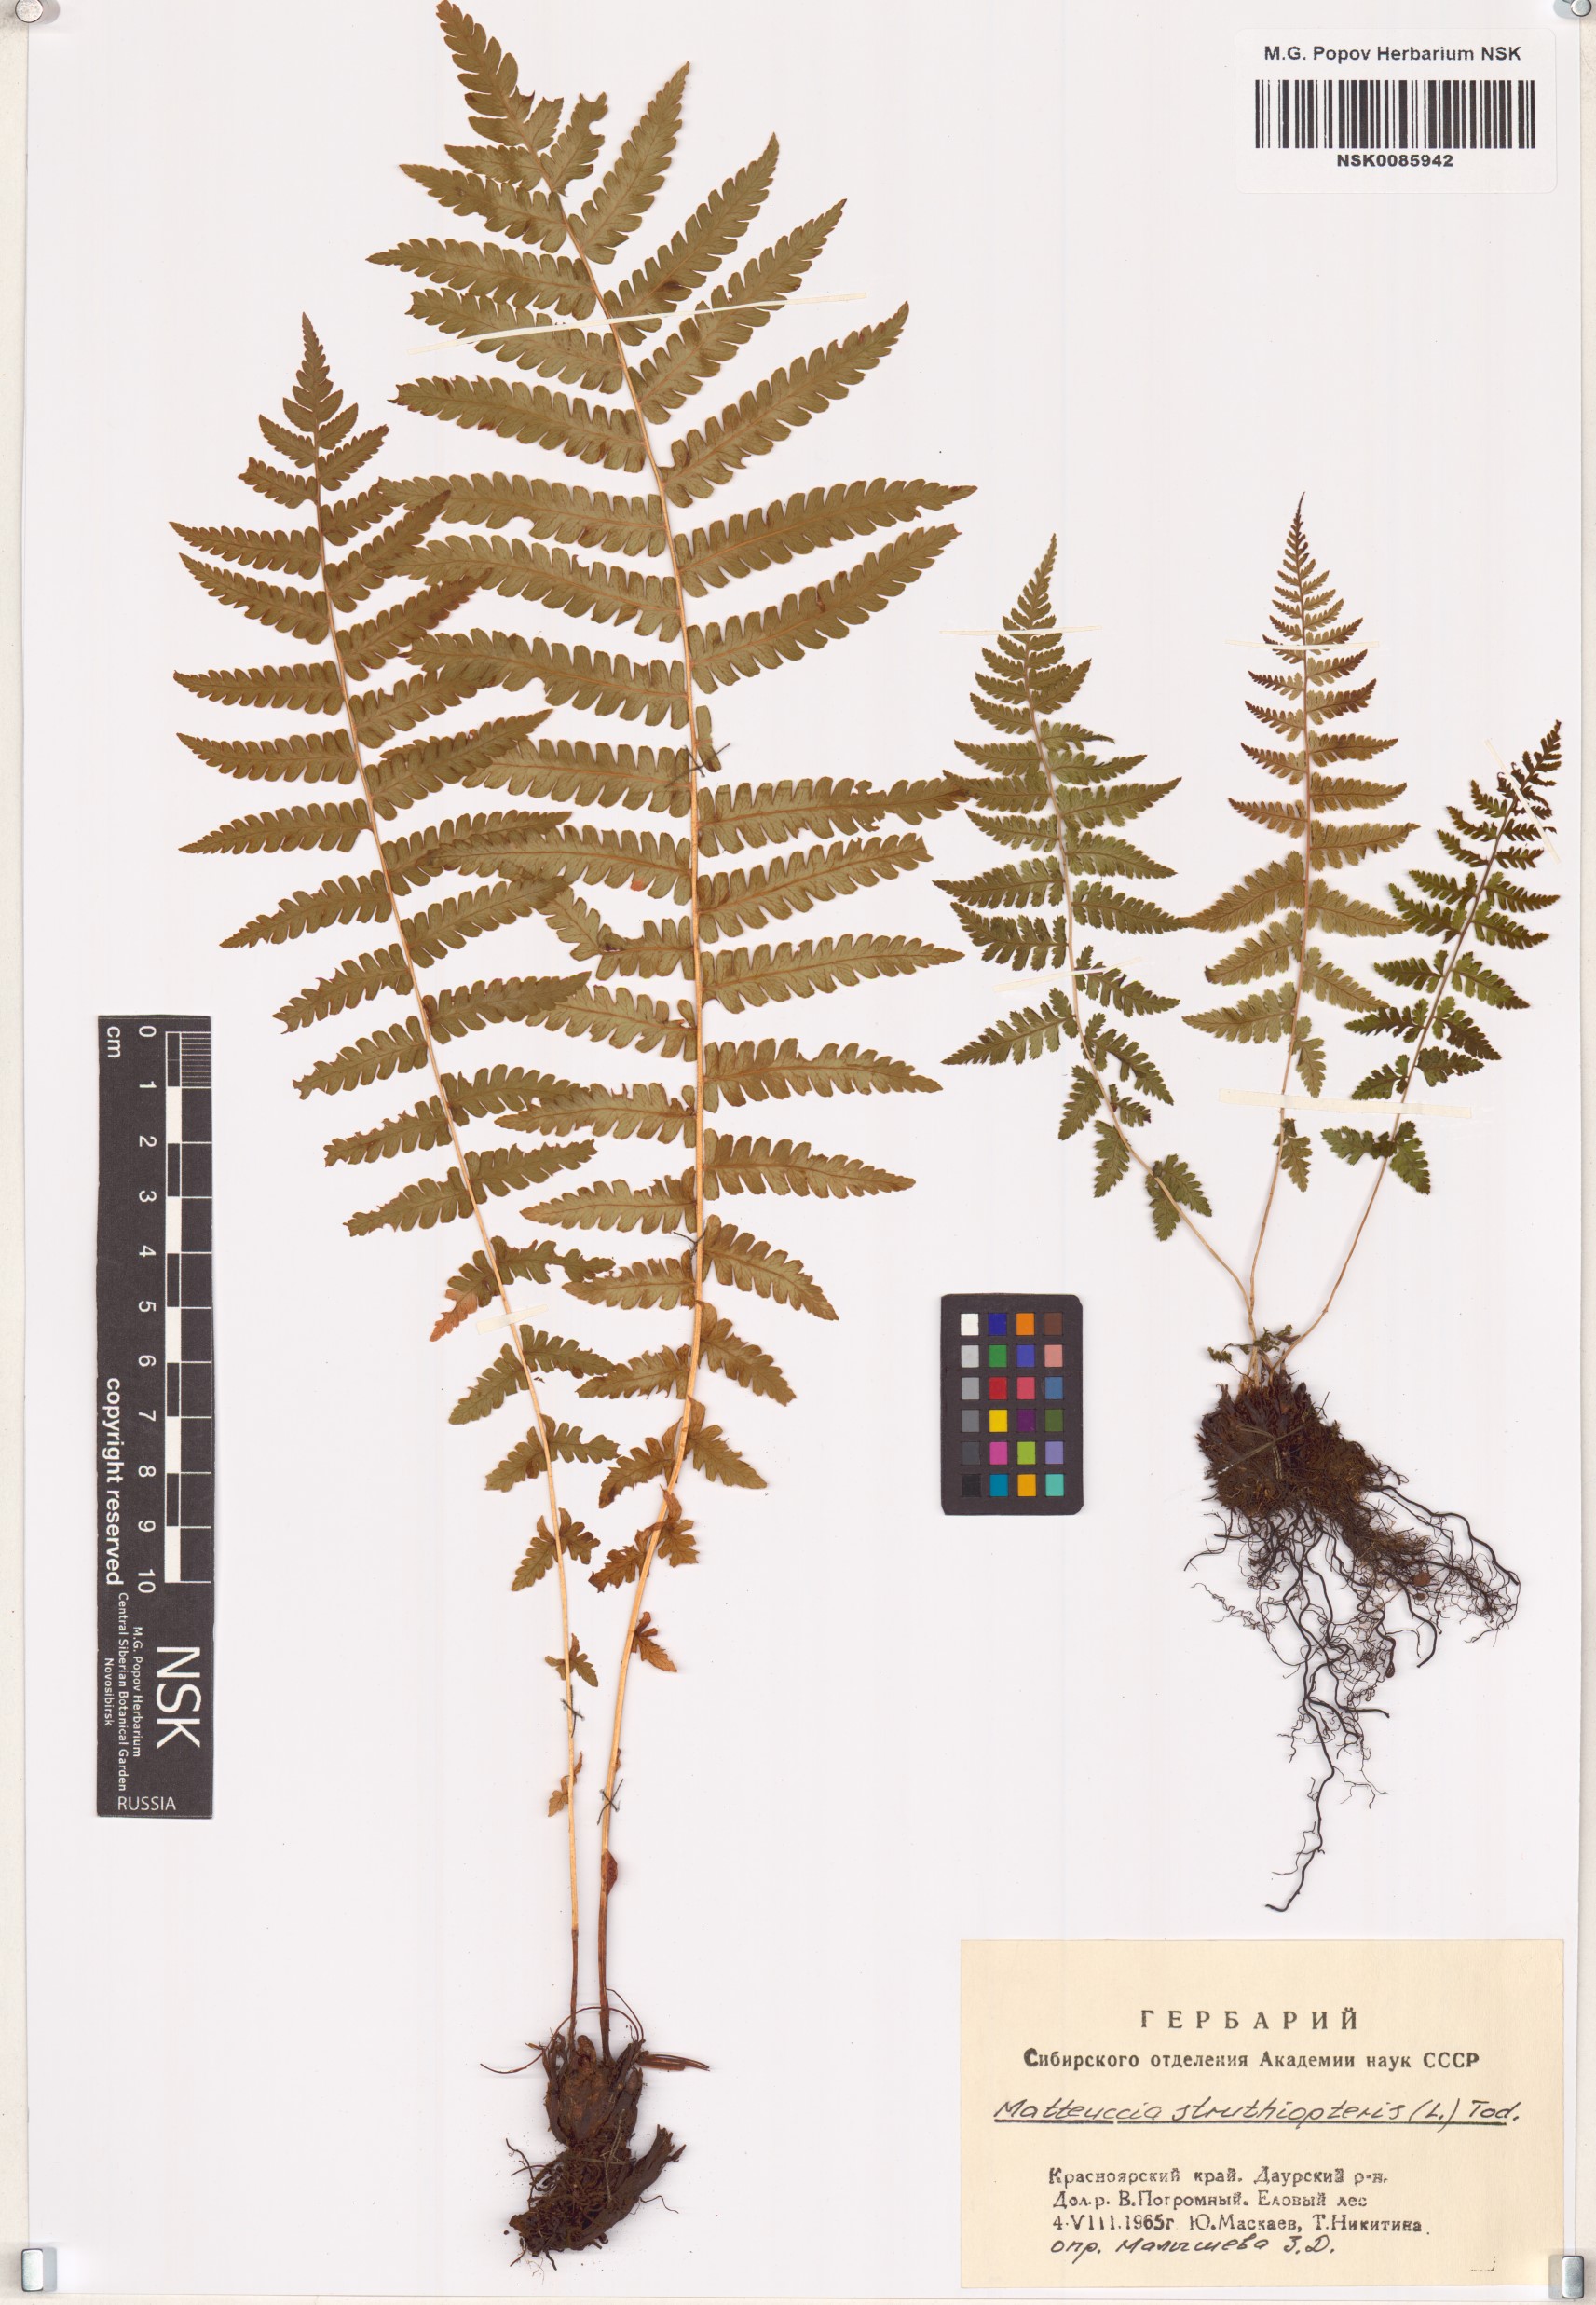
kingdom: Plantae
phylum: Tracheophyta
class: Polypodiopsida
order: Polypodiales
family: Onocleaceae
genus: Matteuccia
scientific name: Matteuccia struthiopteris
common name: Ostrich fern
